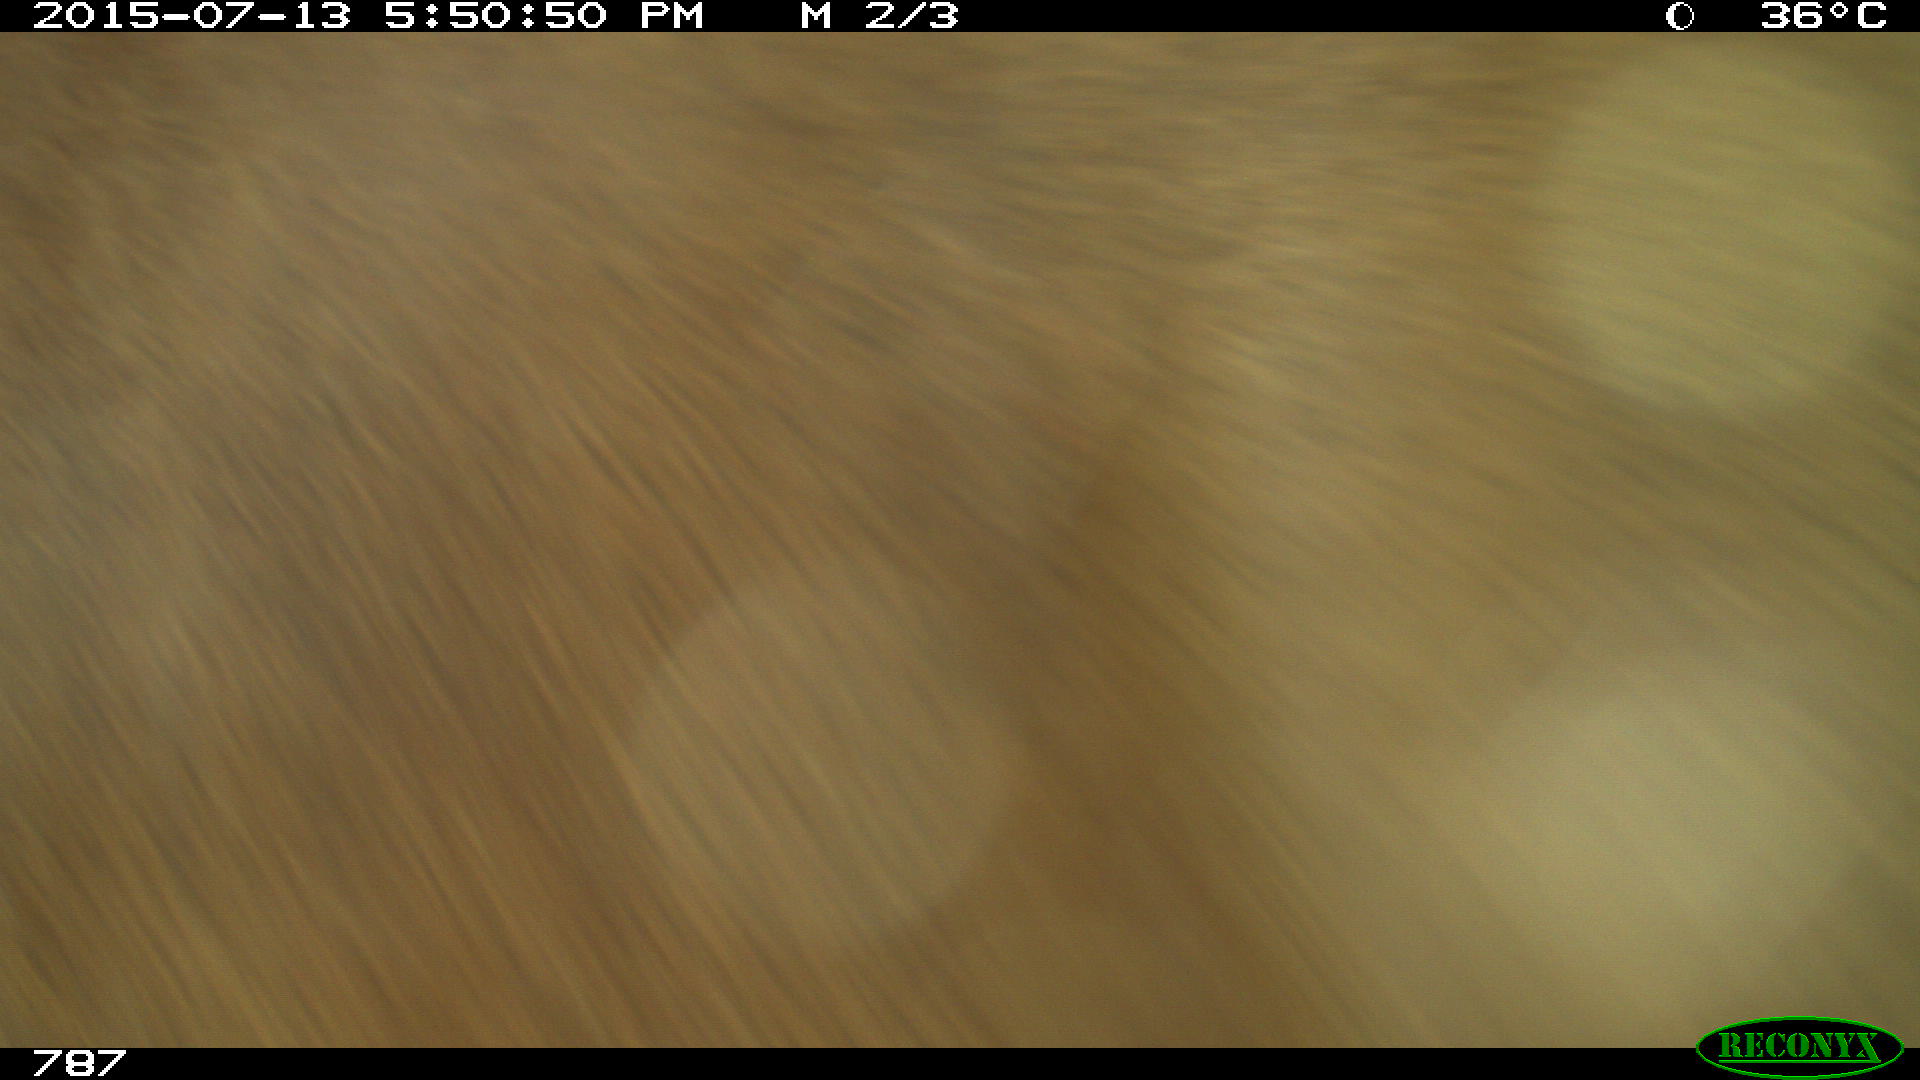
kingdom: Animalia
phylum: Chordata
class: Mammalia
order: Artiodactyla
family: Bovidae
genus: Bos
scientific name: Bos taurus
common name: Domesticated cattle
